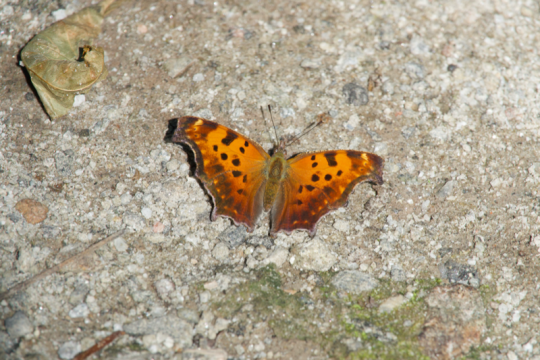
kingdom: Animalia
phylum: Arthropoda
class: Insecta
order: Lepidoptera
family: Nymphalidae
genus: Polygonia
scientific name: Polygonia comma
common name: Eastern Comma
